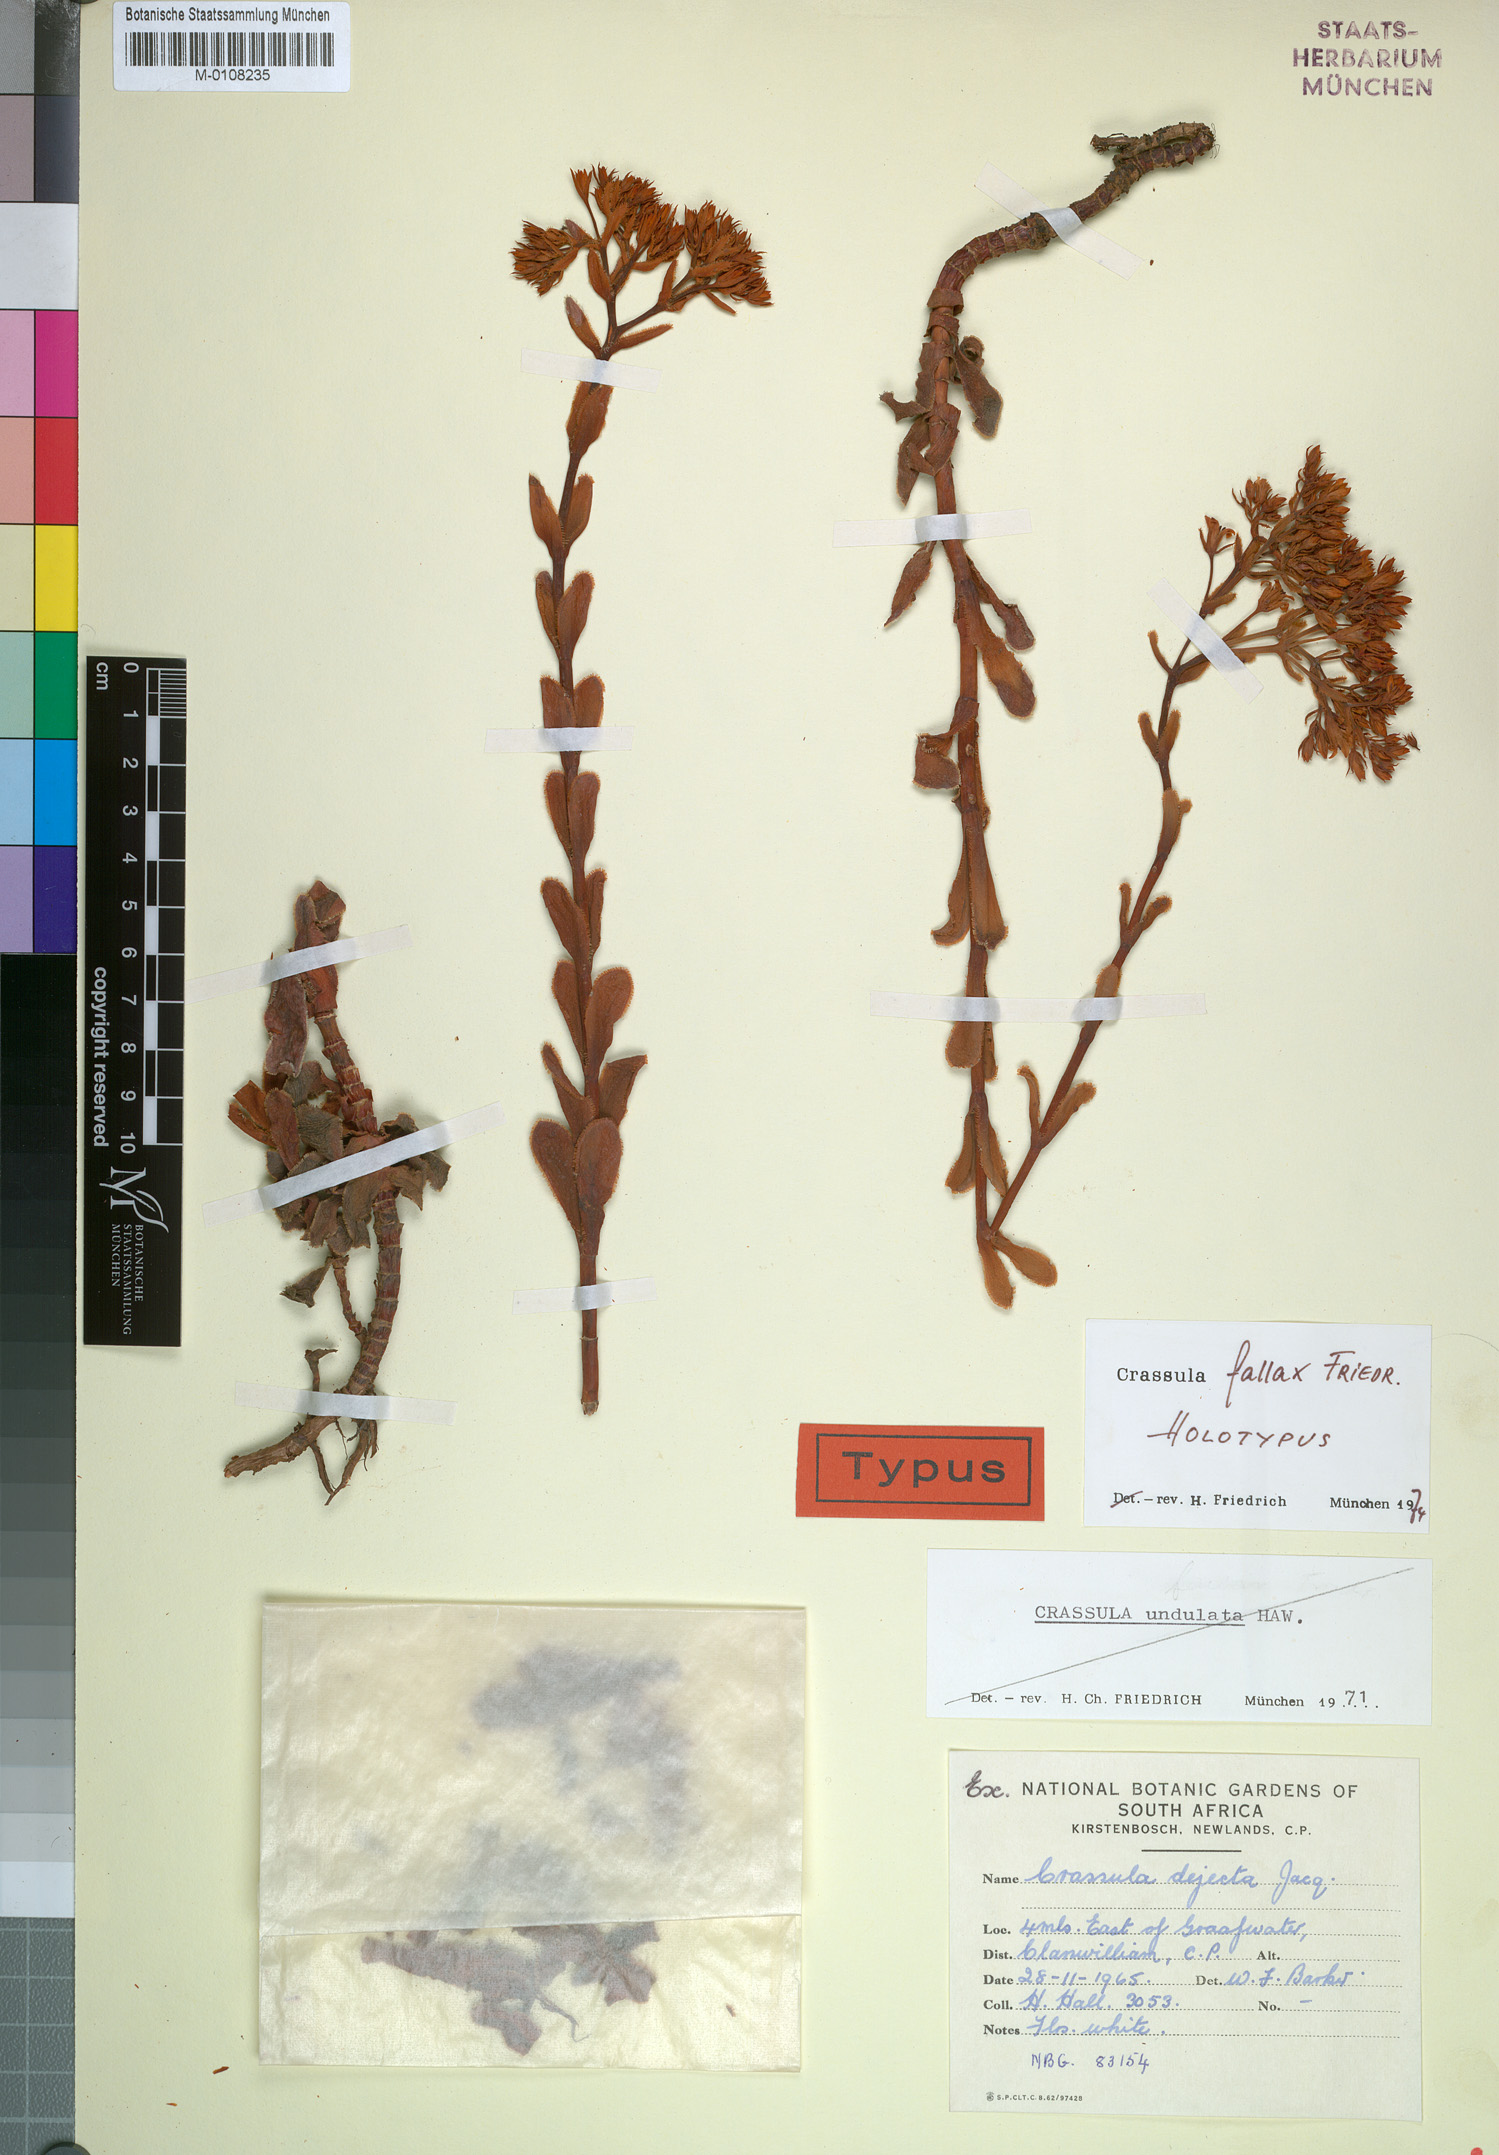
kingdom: Plantae
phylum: Tracheophyta
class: Magnoliopsida
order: Saxifragales
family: Crassulaceae
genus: Crassula
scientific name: Crassula fallax
